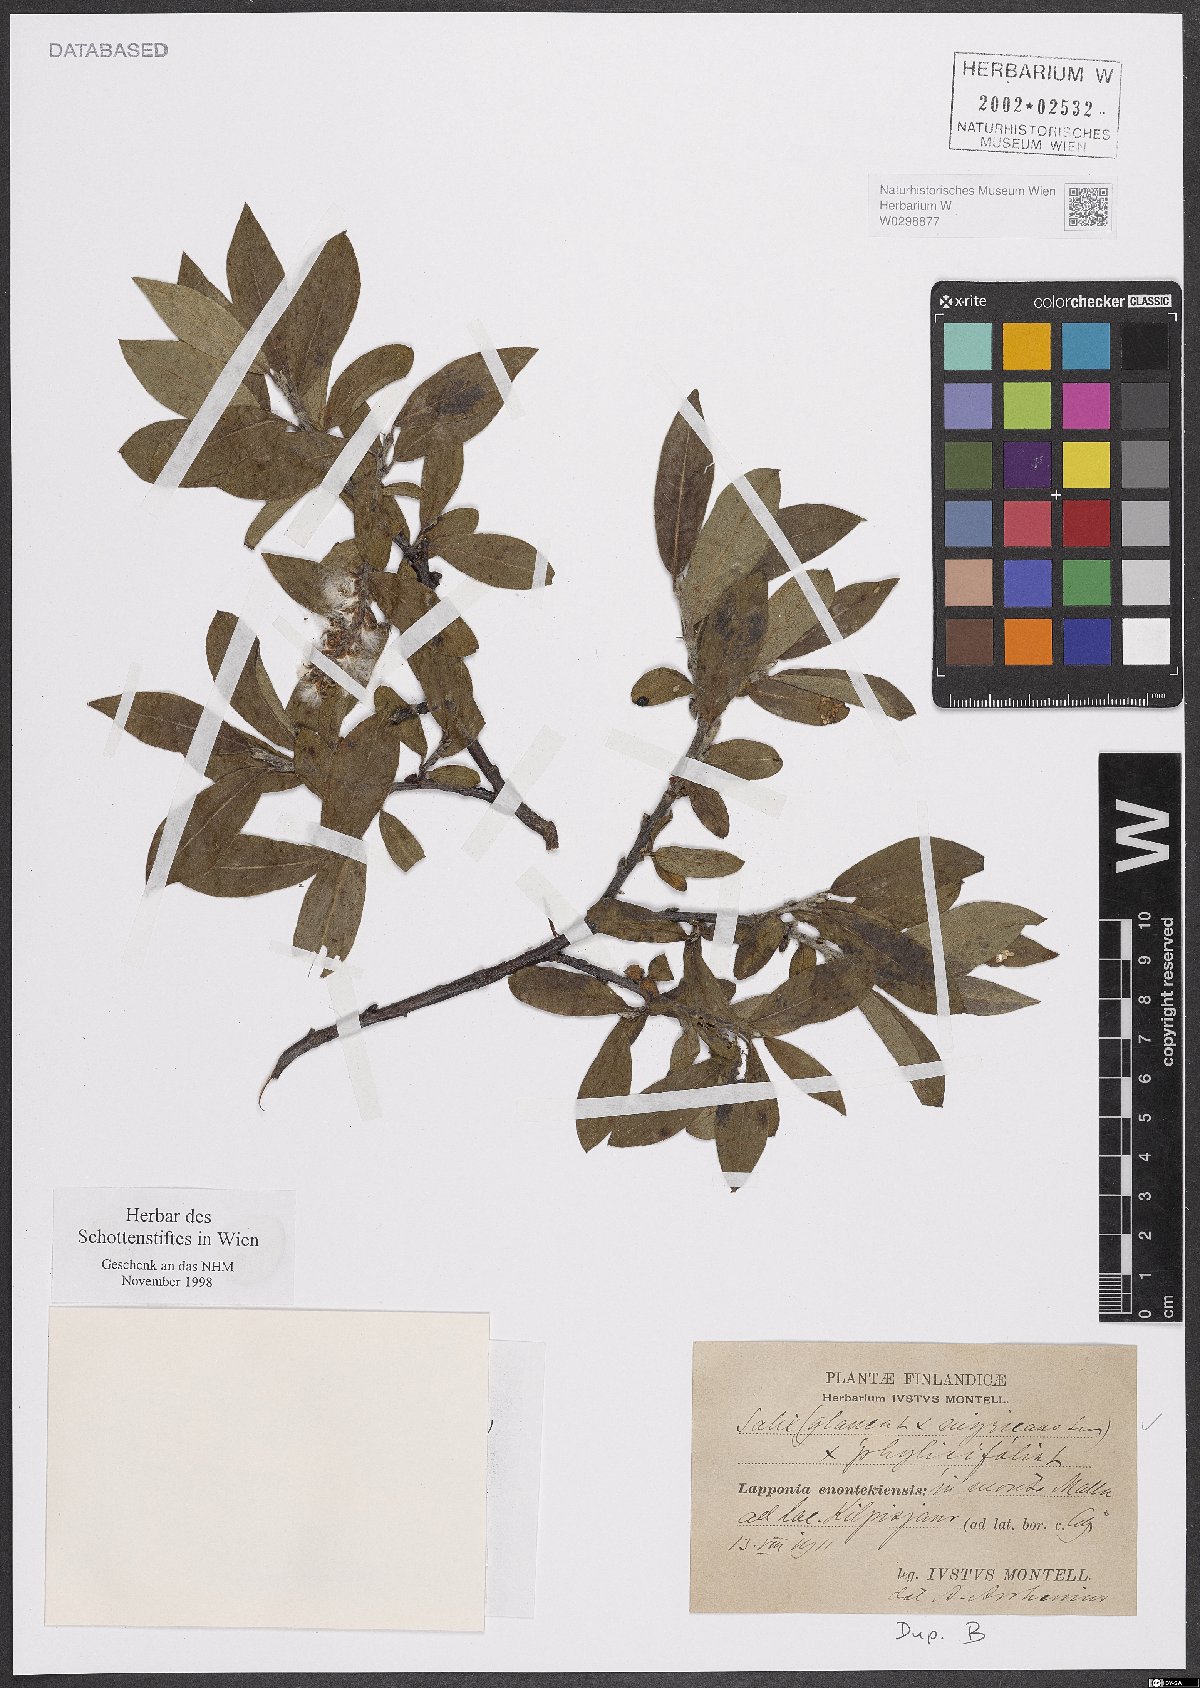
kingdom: Plantae
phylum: Tracheophyta
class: Magnoliopsida
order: Malpighiales
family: Salicaceae
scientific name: Salicaceae
